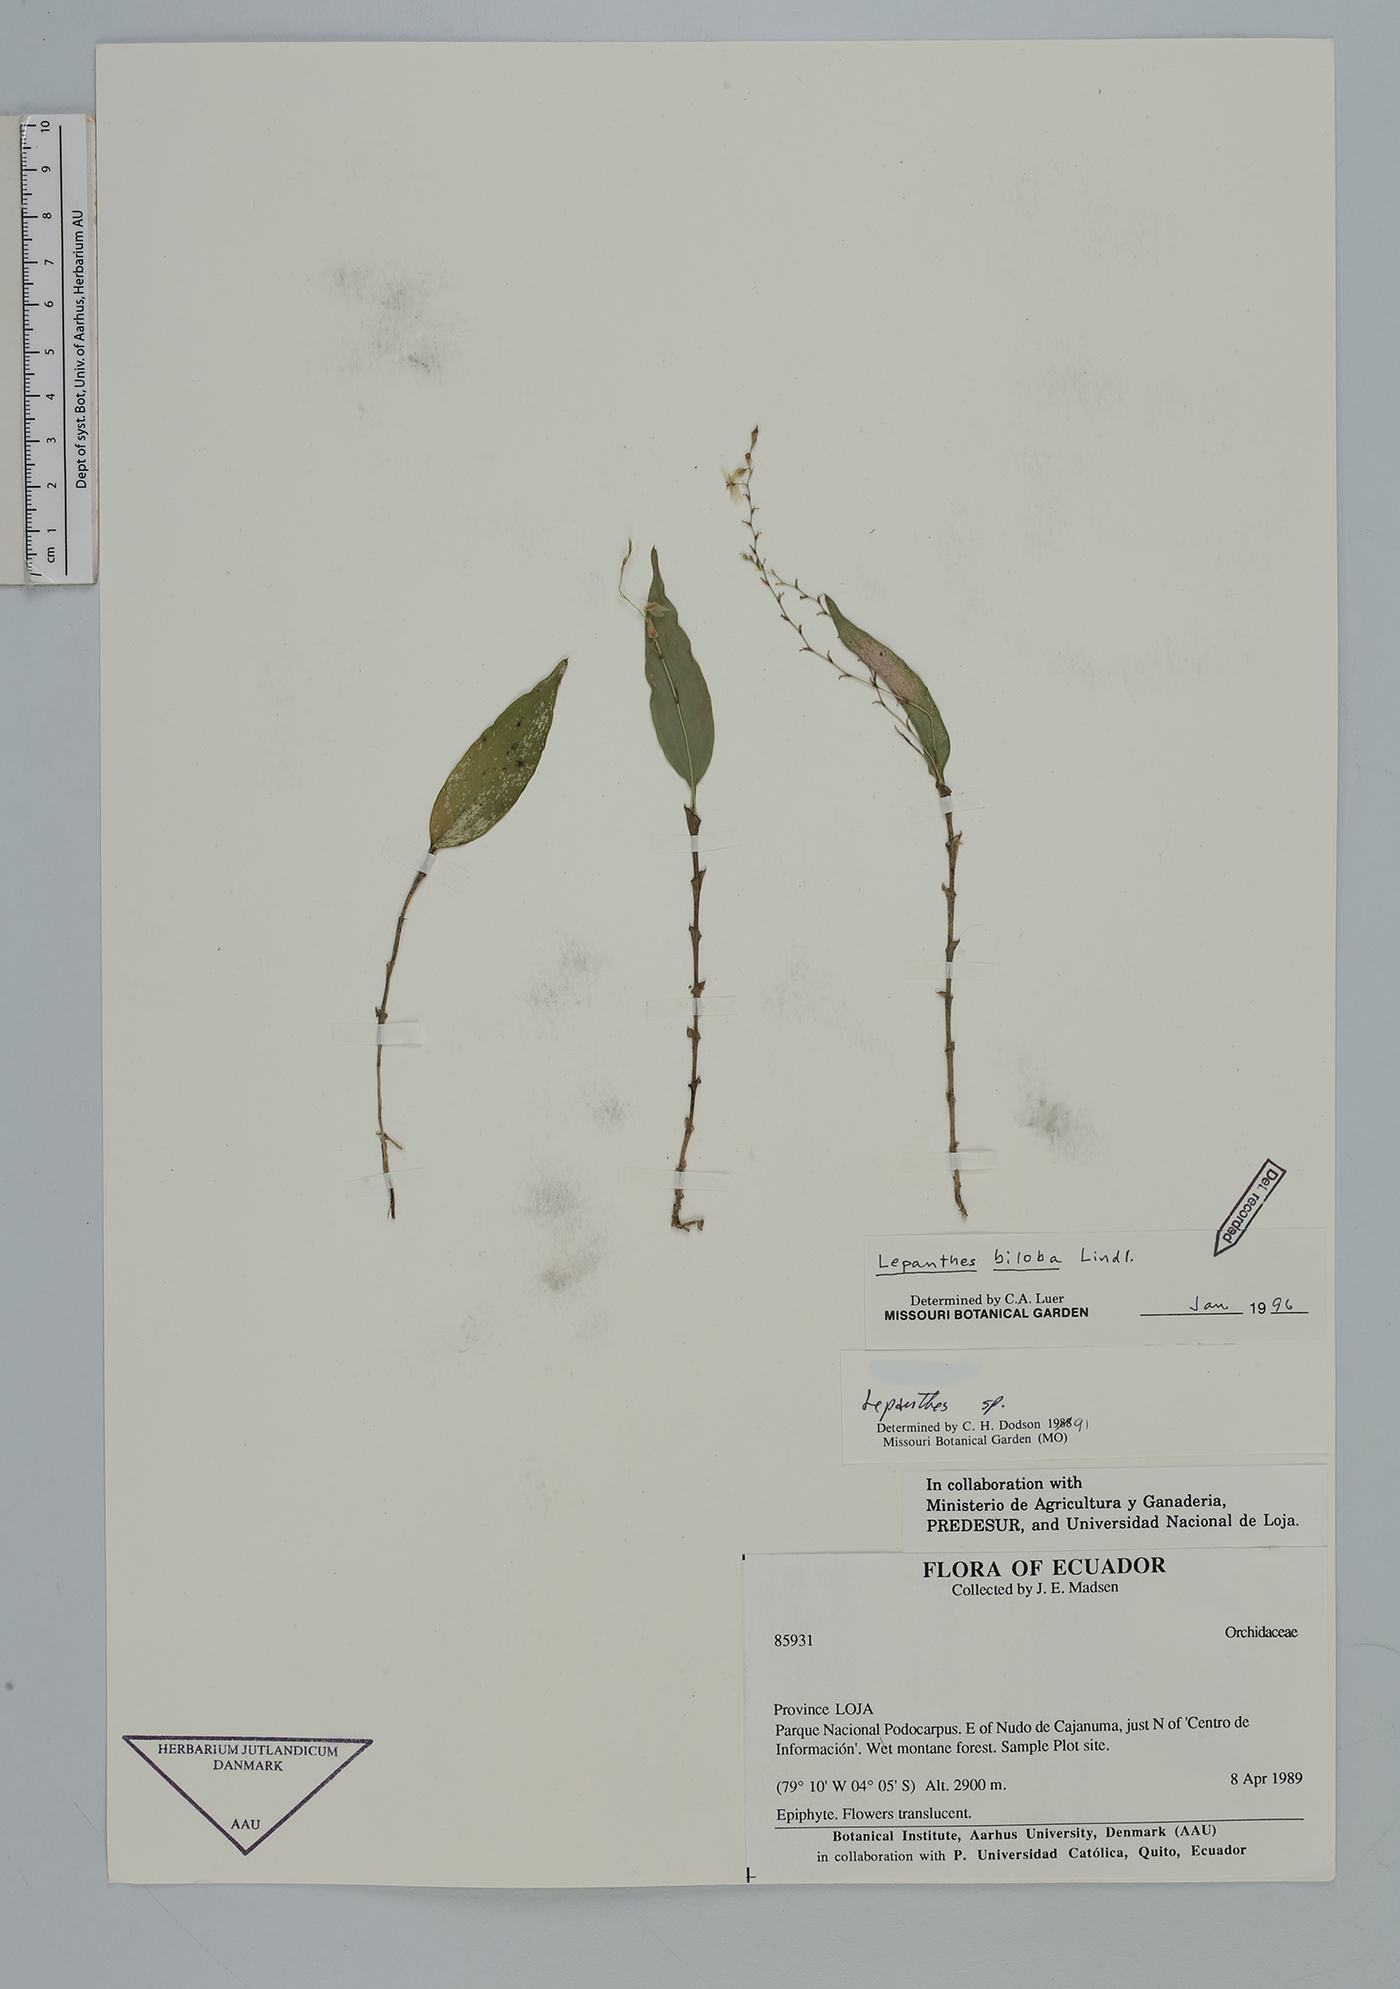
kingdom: Plantae
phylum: Tracheophyta
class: Liliopsida
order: Asparagales
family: Orchidaceae
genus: Lepanthes
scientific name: Lepanthes biloba
